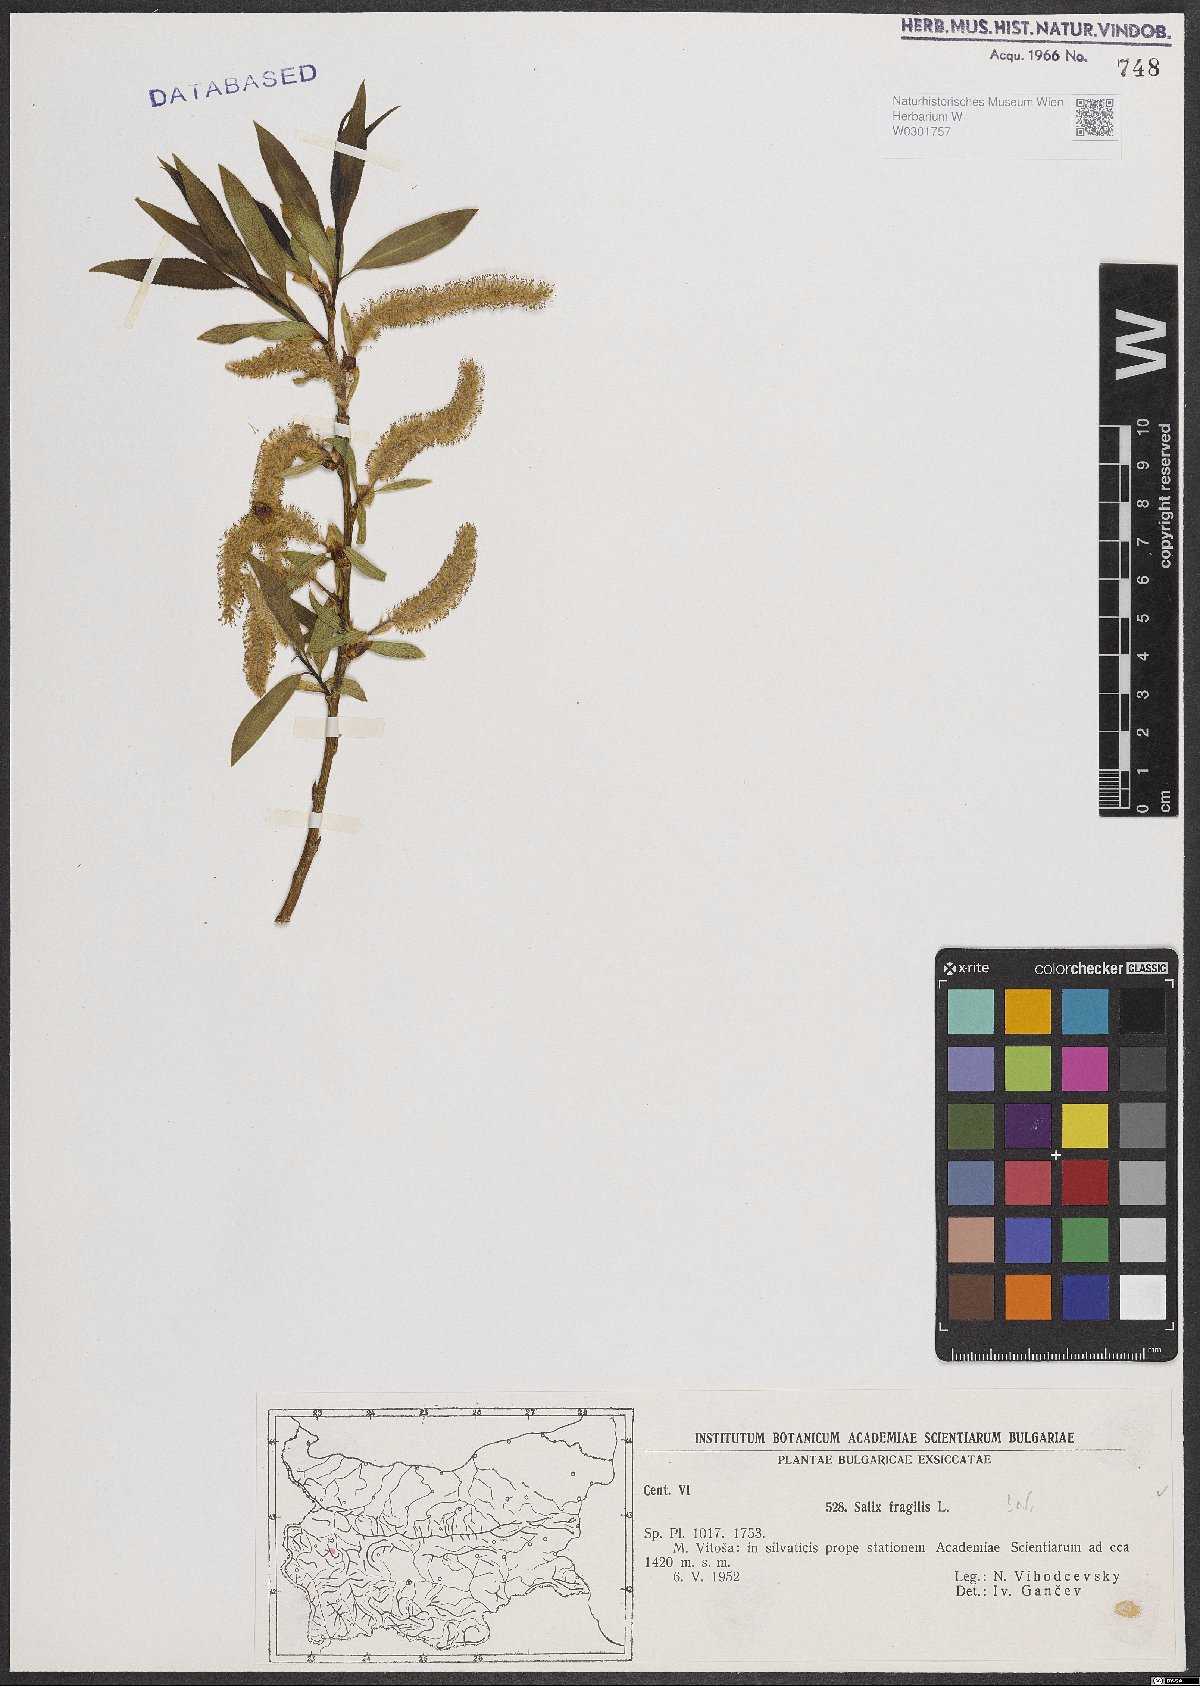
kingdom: Plantae
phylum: Tracheophyta
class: Magnoliopsida
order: Malpighiales
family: Salicaceae
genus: Salix
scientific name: Salix fragilis
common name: Crack willow
